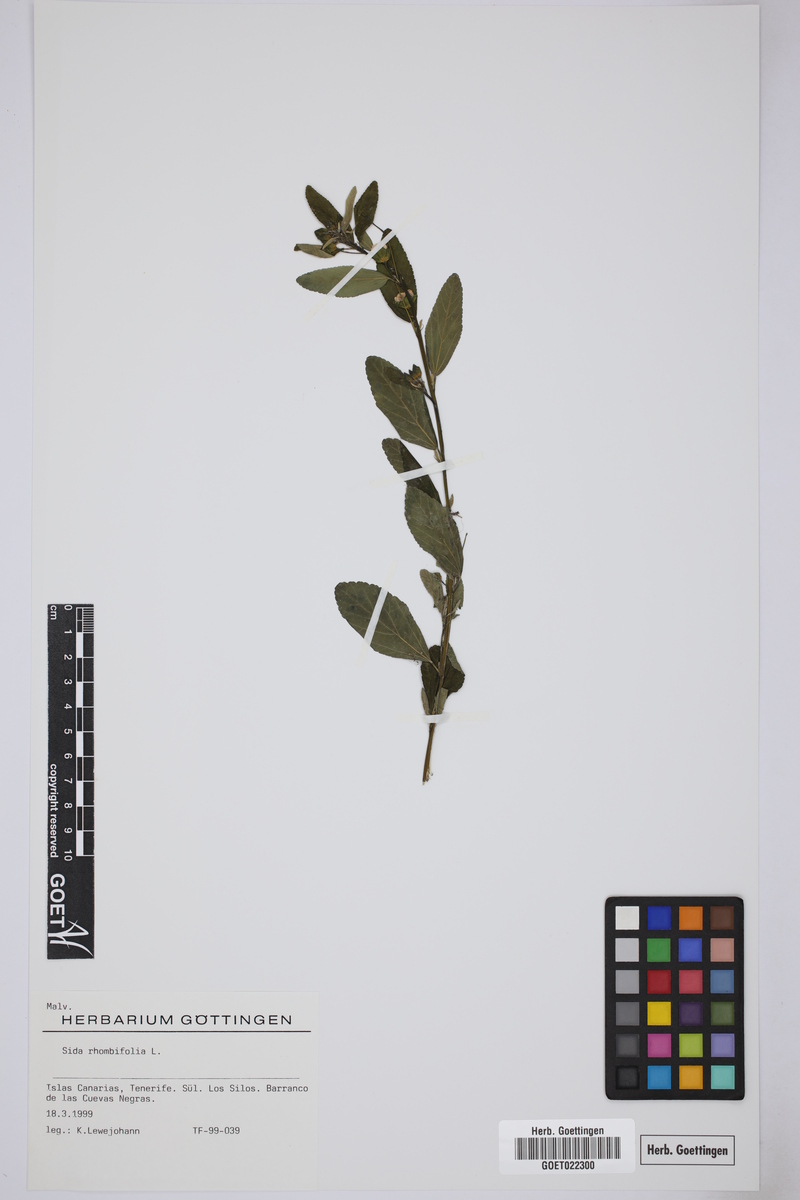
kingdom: Plantae
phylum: Tracheophyta
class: Magnoliopsida
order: Malvales
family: Malvaceae
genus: Sida
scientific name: Sida rhombifolia
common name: Queensland-hemp
